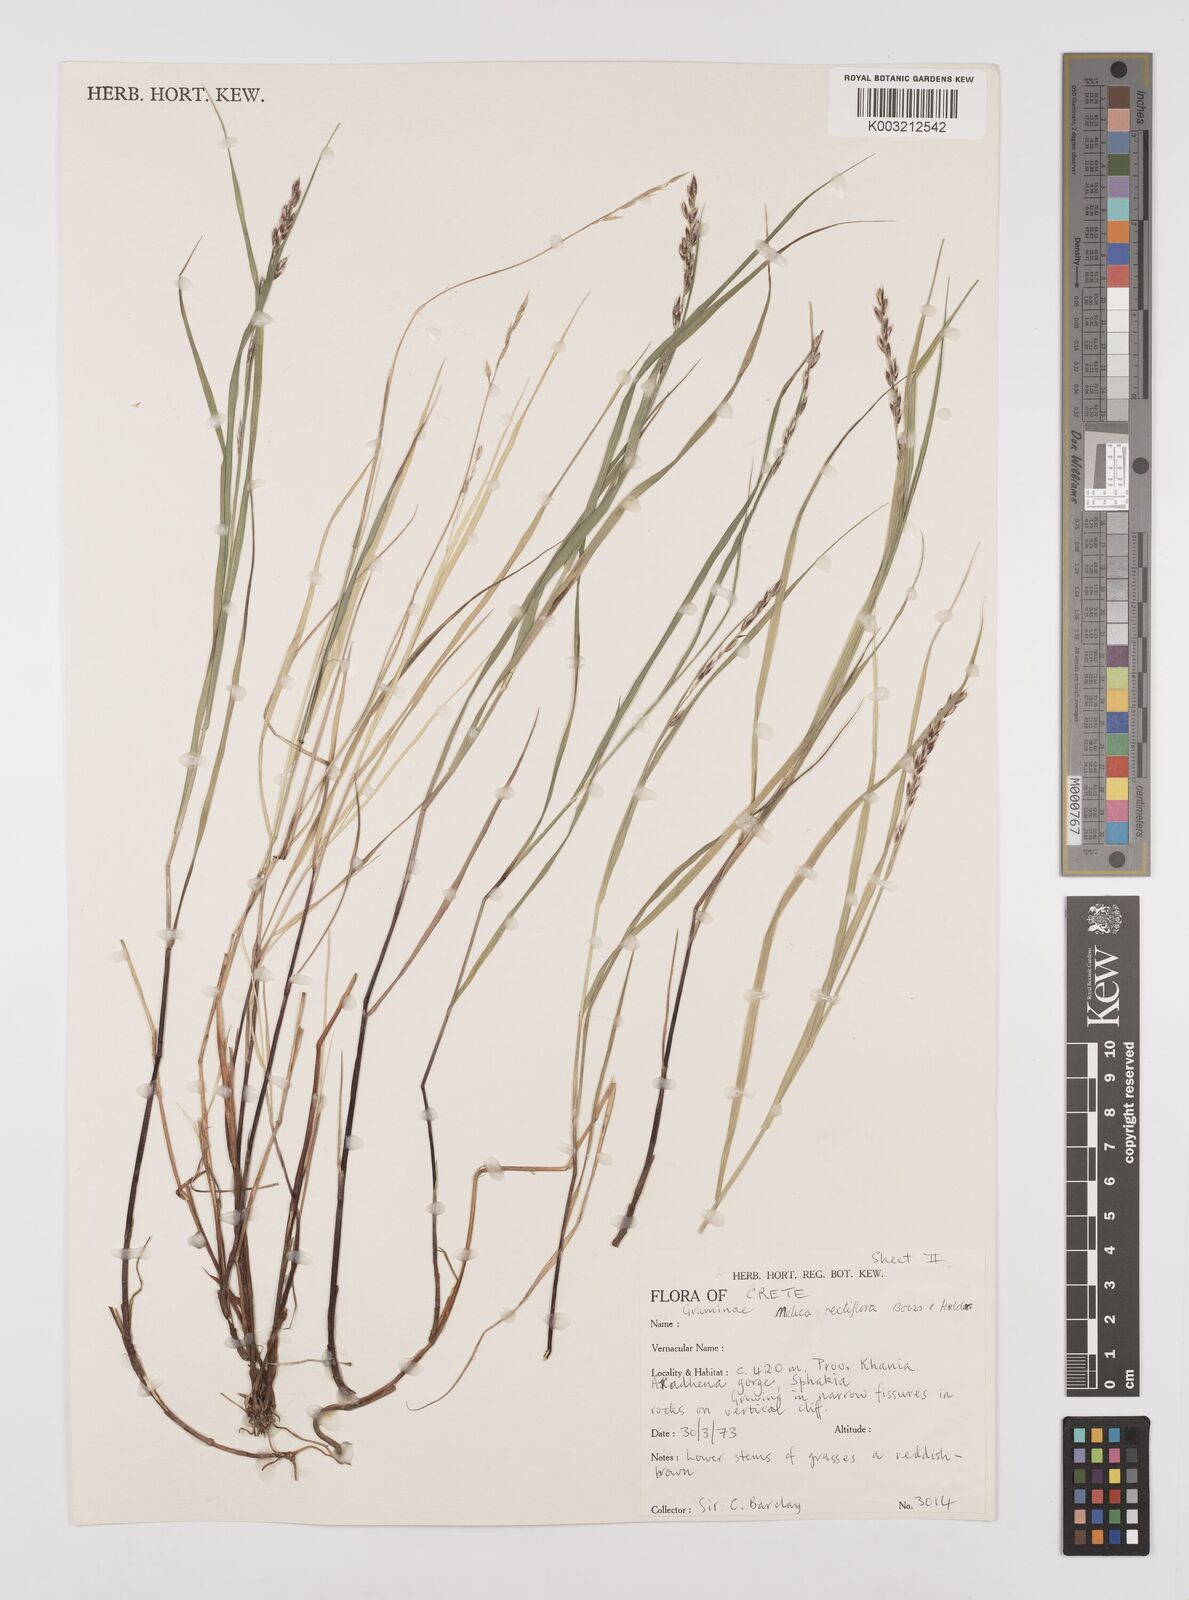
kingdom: Plantae
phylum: Tracheophyta
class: Liliopsida
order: Poales
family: Poaceae
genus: Melica
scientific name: Melica rectiflora
